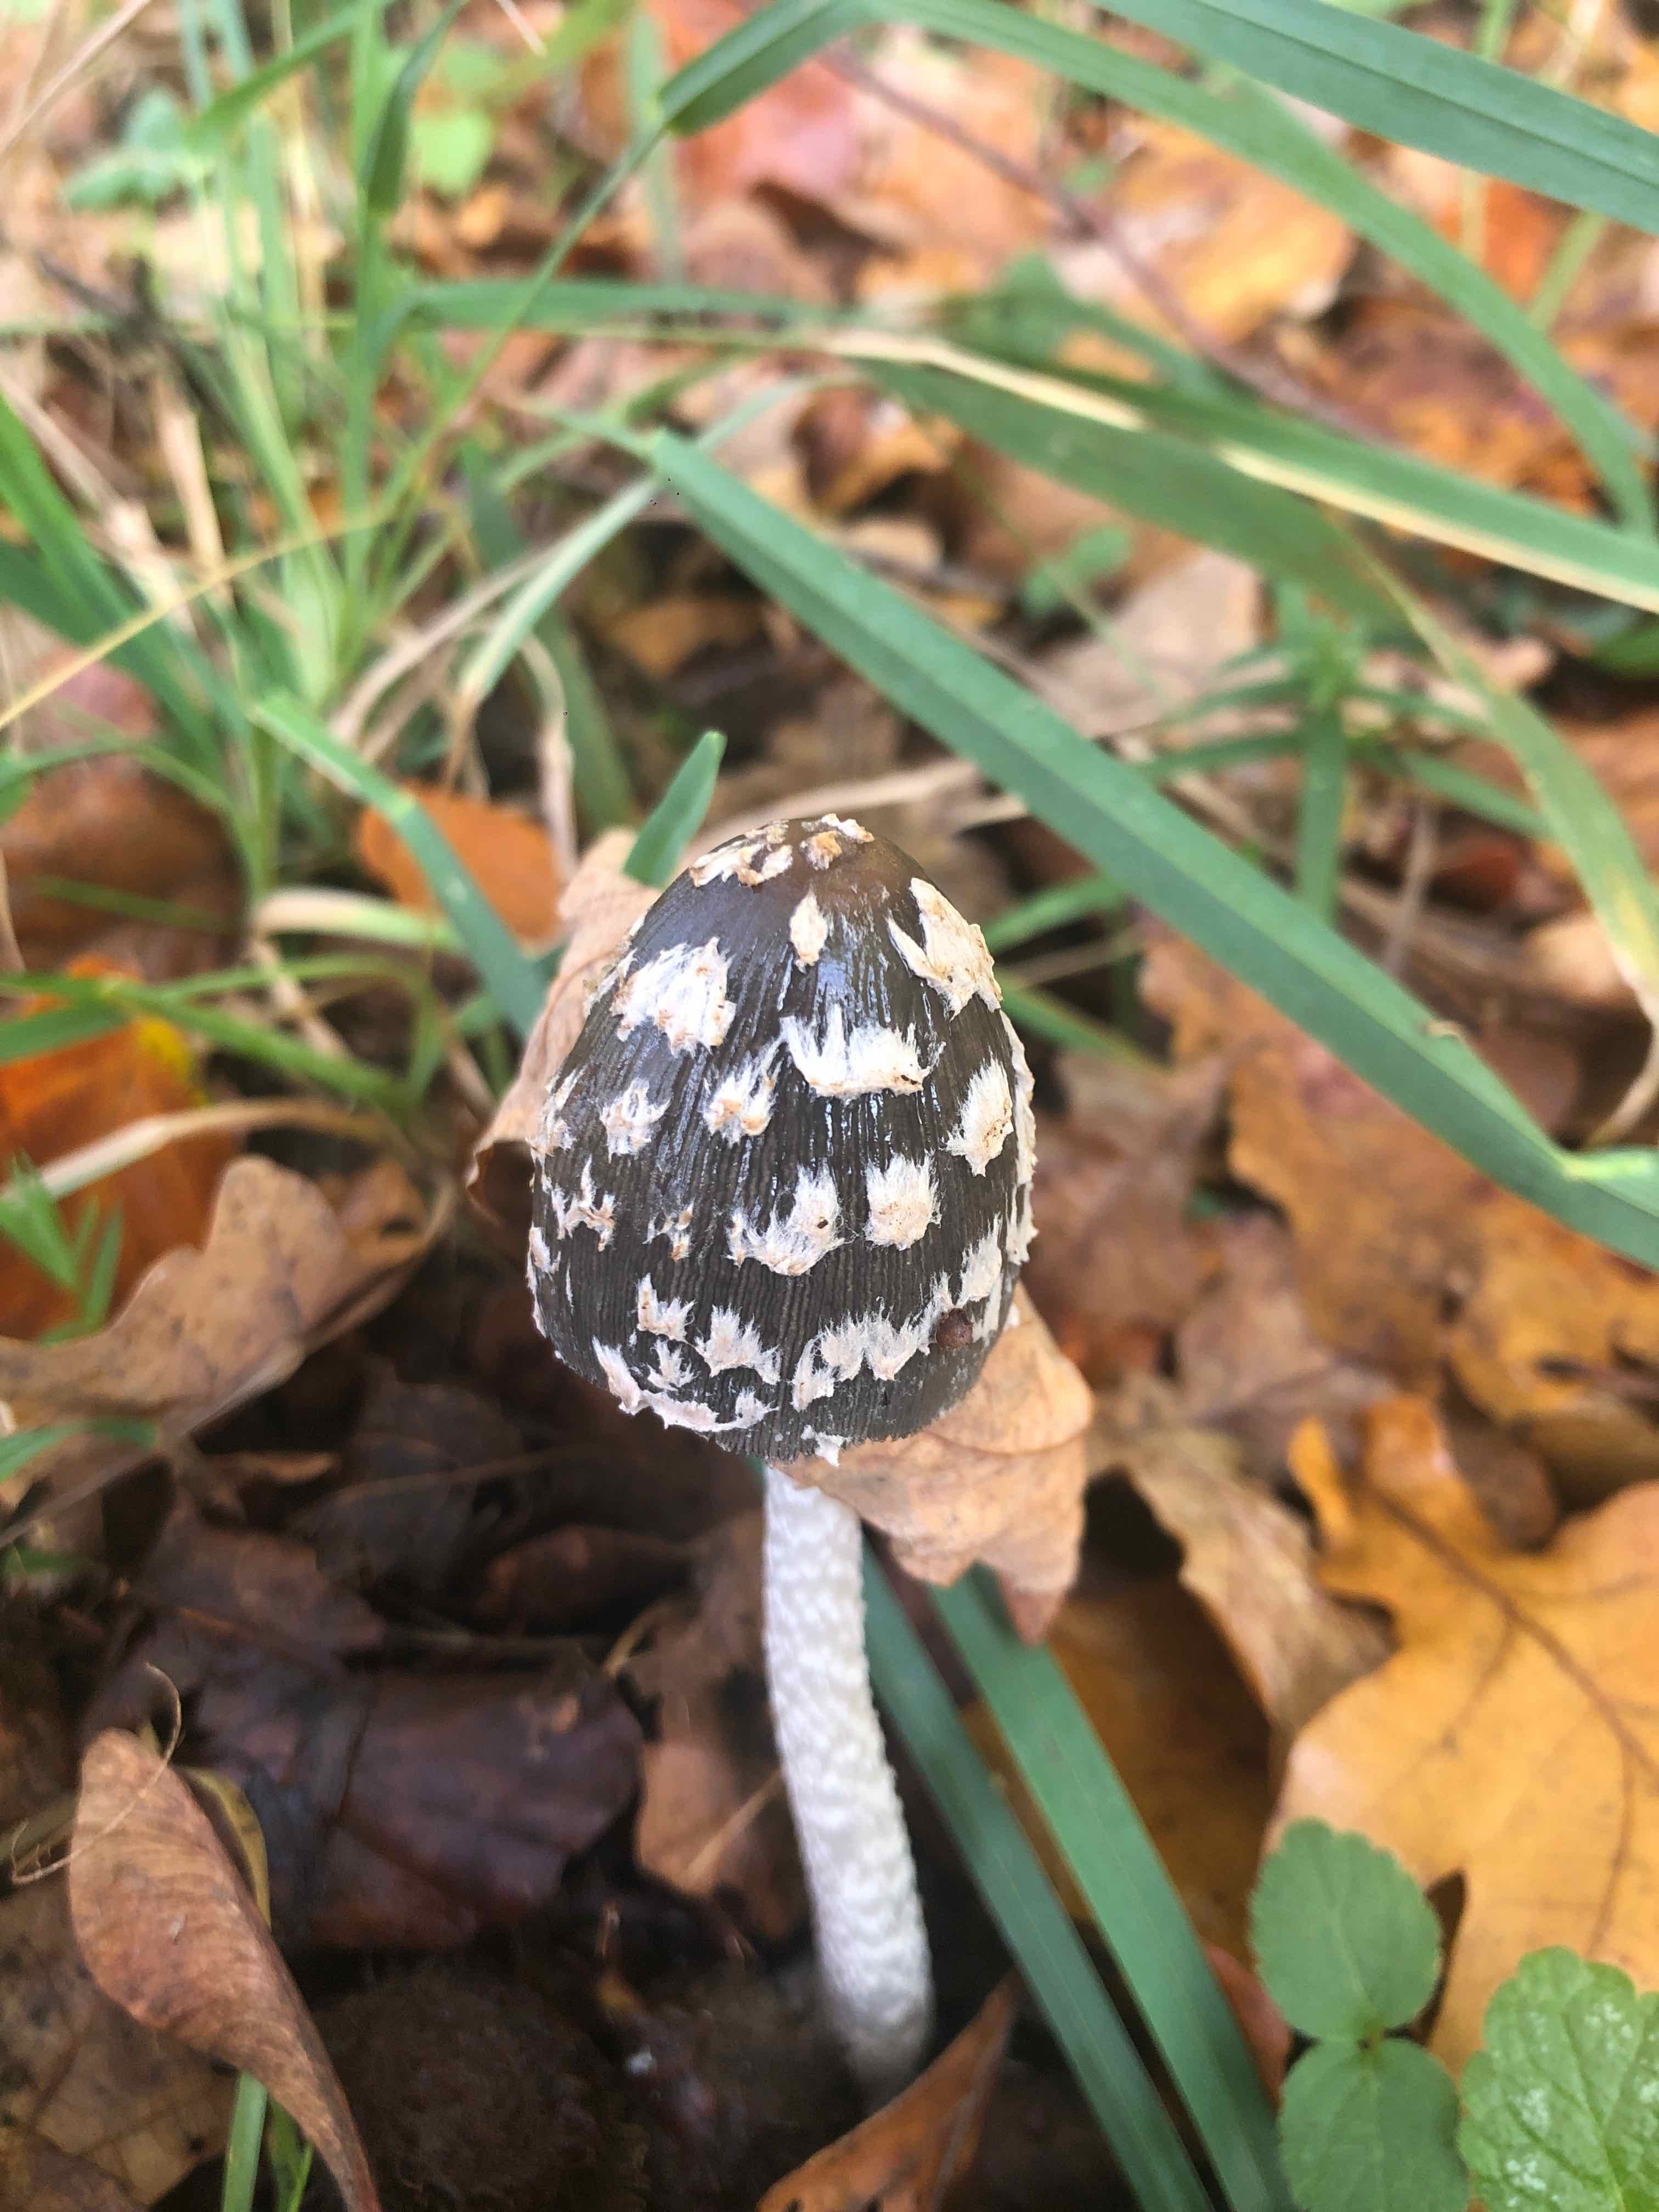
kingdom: Fungi
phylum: Basidiomycota
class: Agaricomycetes
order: Agaricales
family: Psathyrellaceae
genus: Coprinopsis
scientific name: Coprinopsis picacea
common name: skade-blækhat
